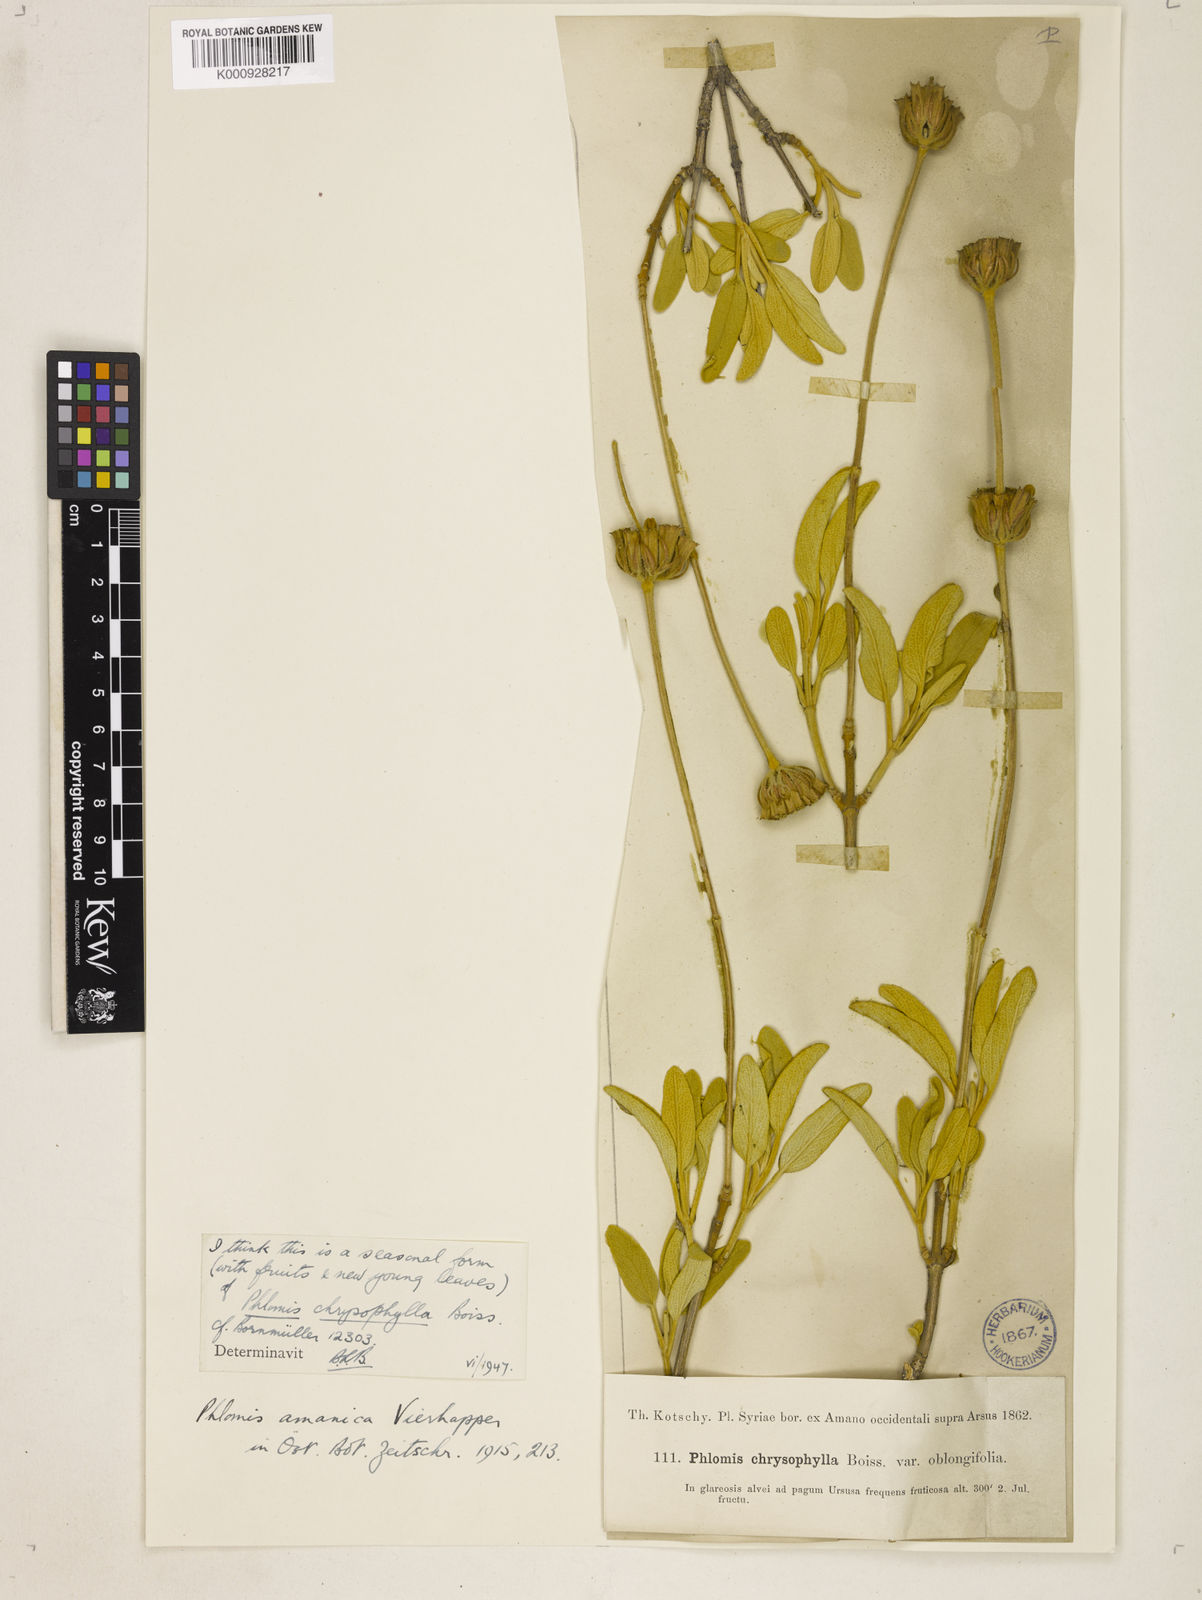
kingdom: Plantae
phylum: Tracheophyta
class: Magnoliopsida
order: Lamiales
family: Lamiaceae
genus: Phlomis
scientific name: Phlomis chrysophylla
